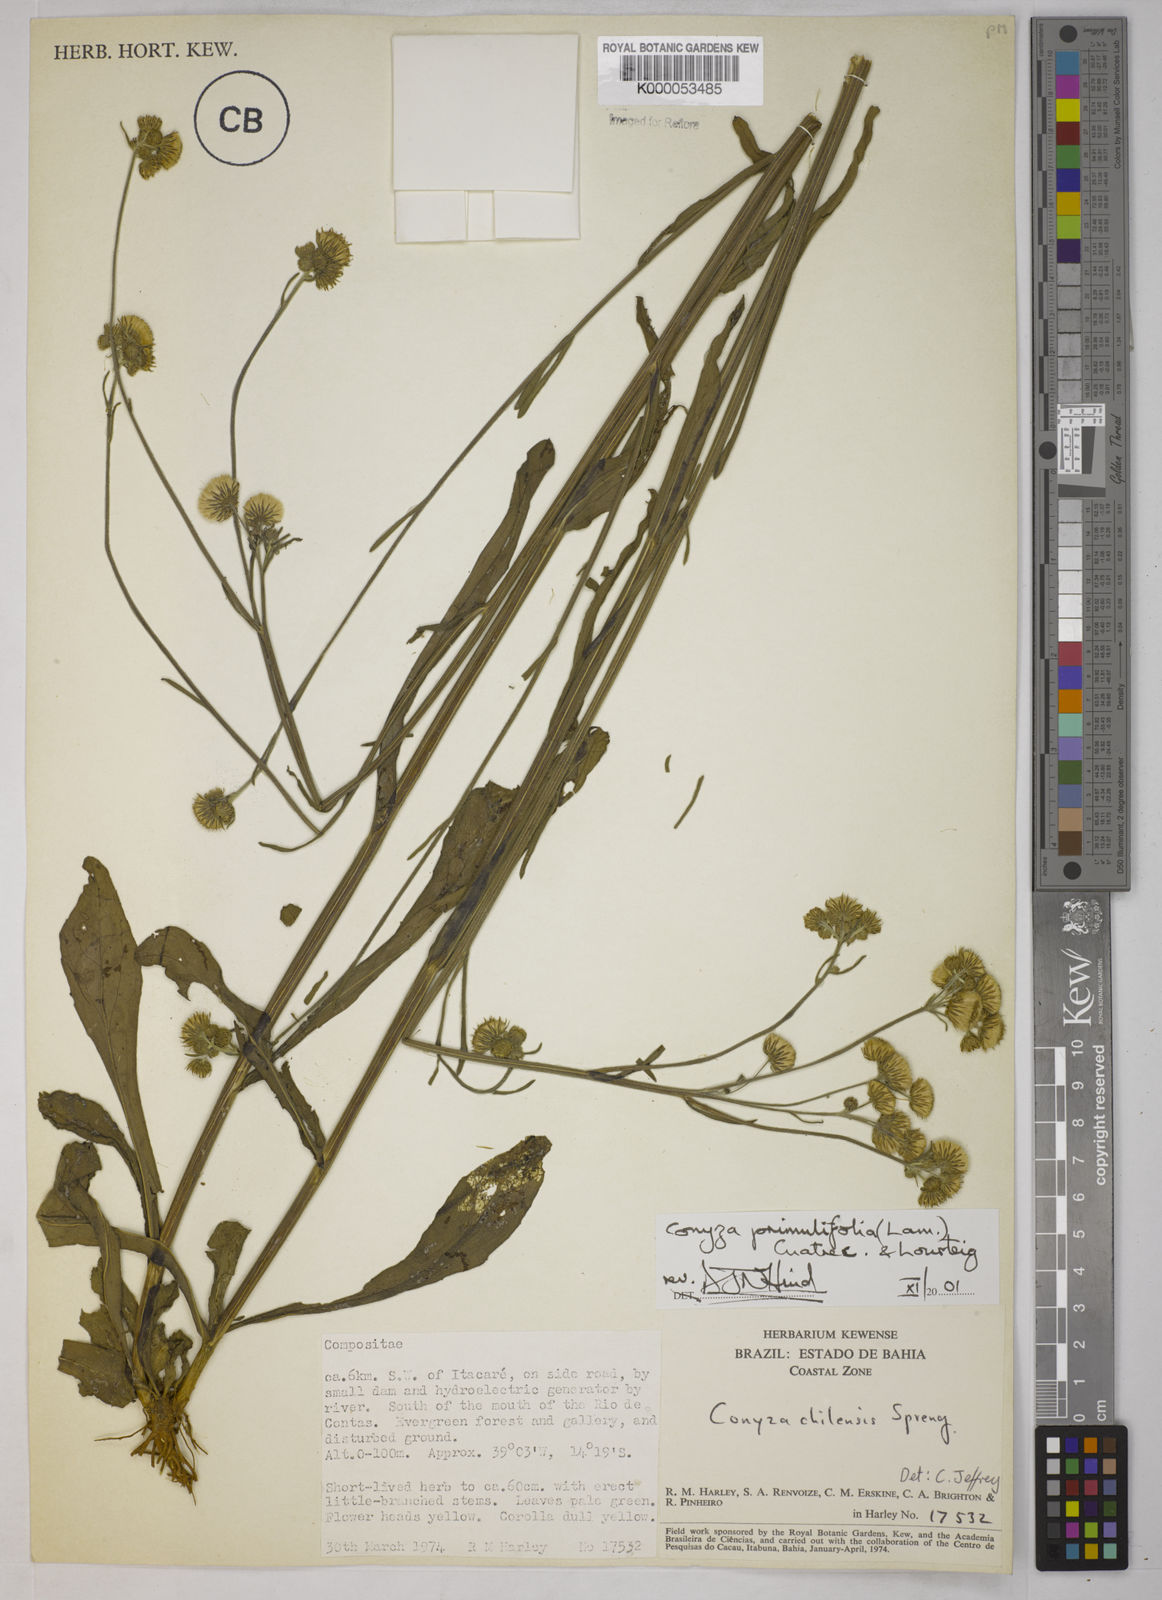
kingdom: Plantae
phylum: Tracheophyta
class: Magnoliopsida
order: Asterales
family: Asteraceae
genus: Erigeron
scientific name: Erigeron primulifolius
